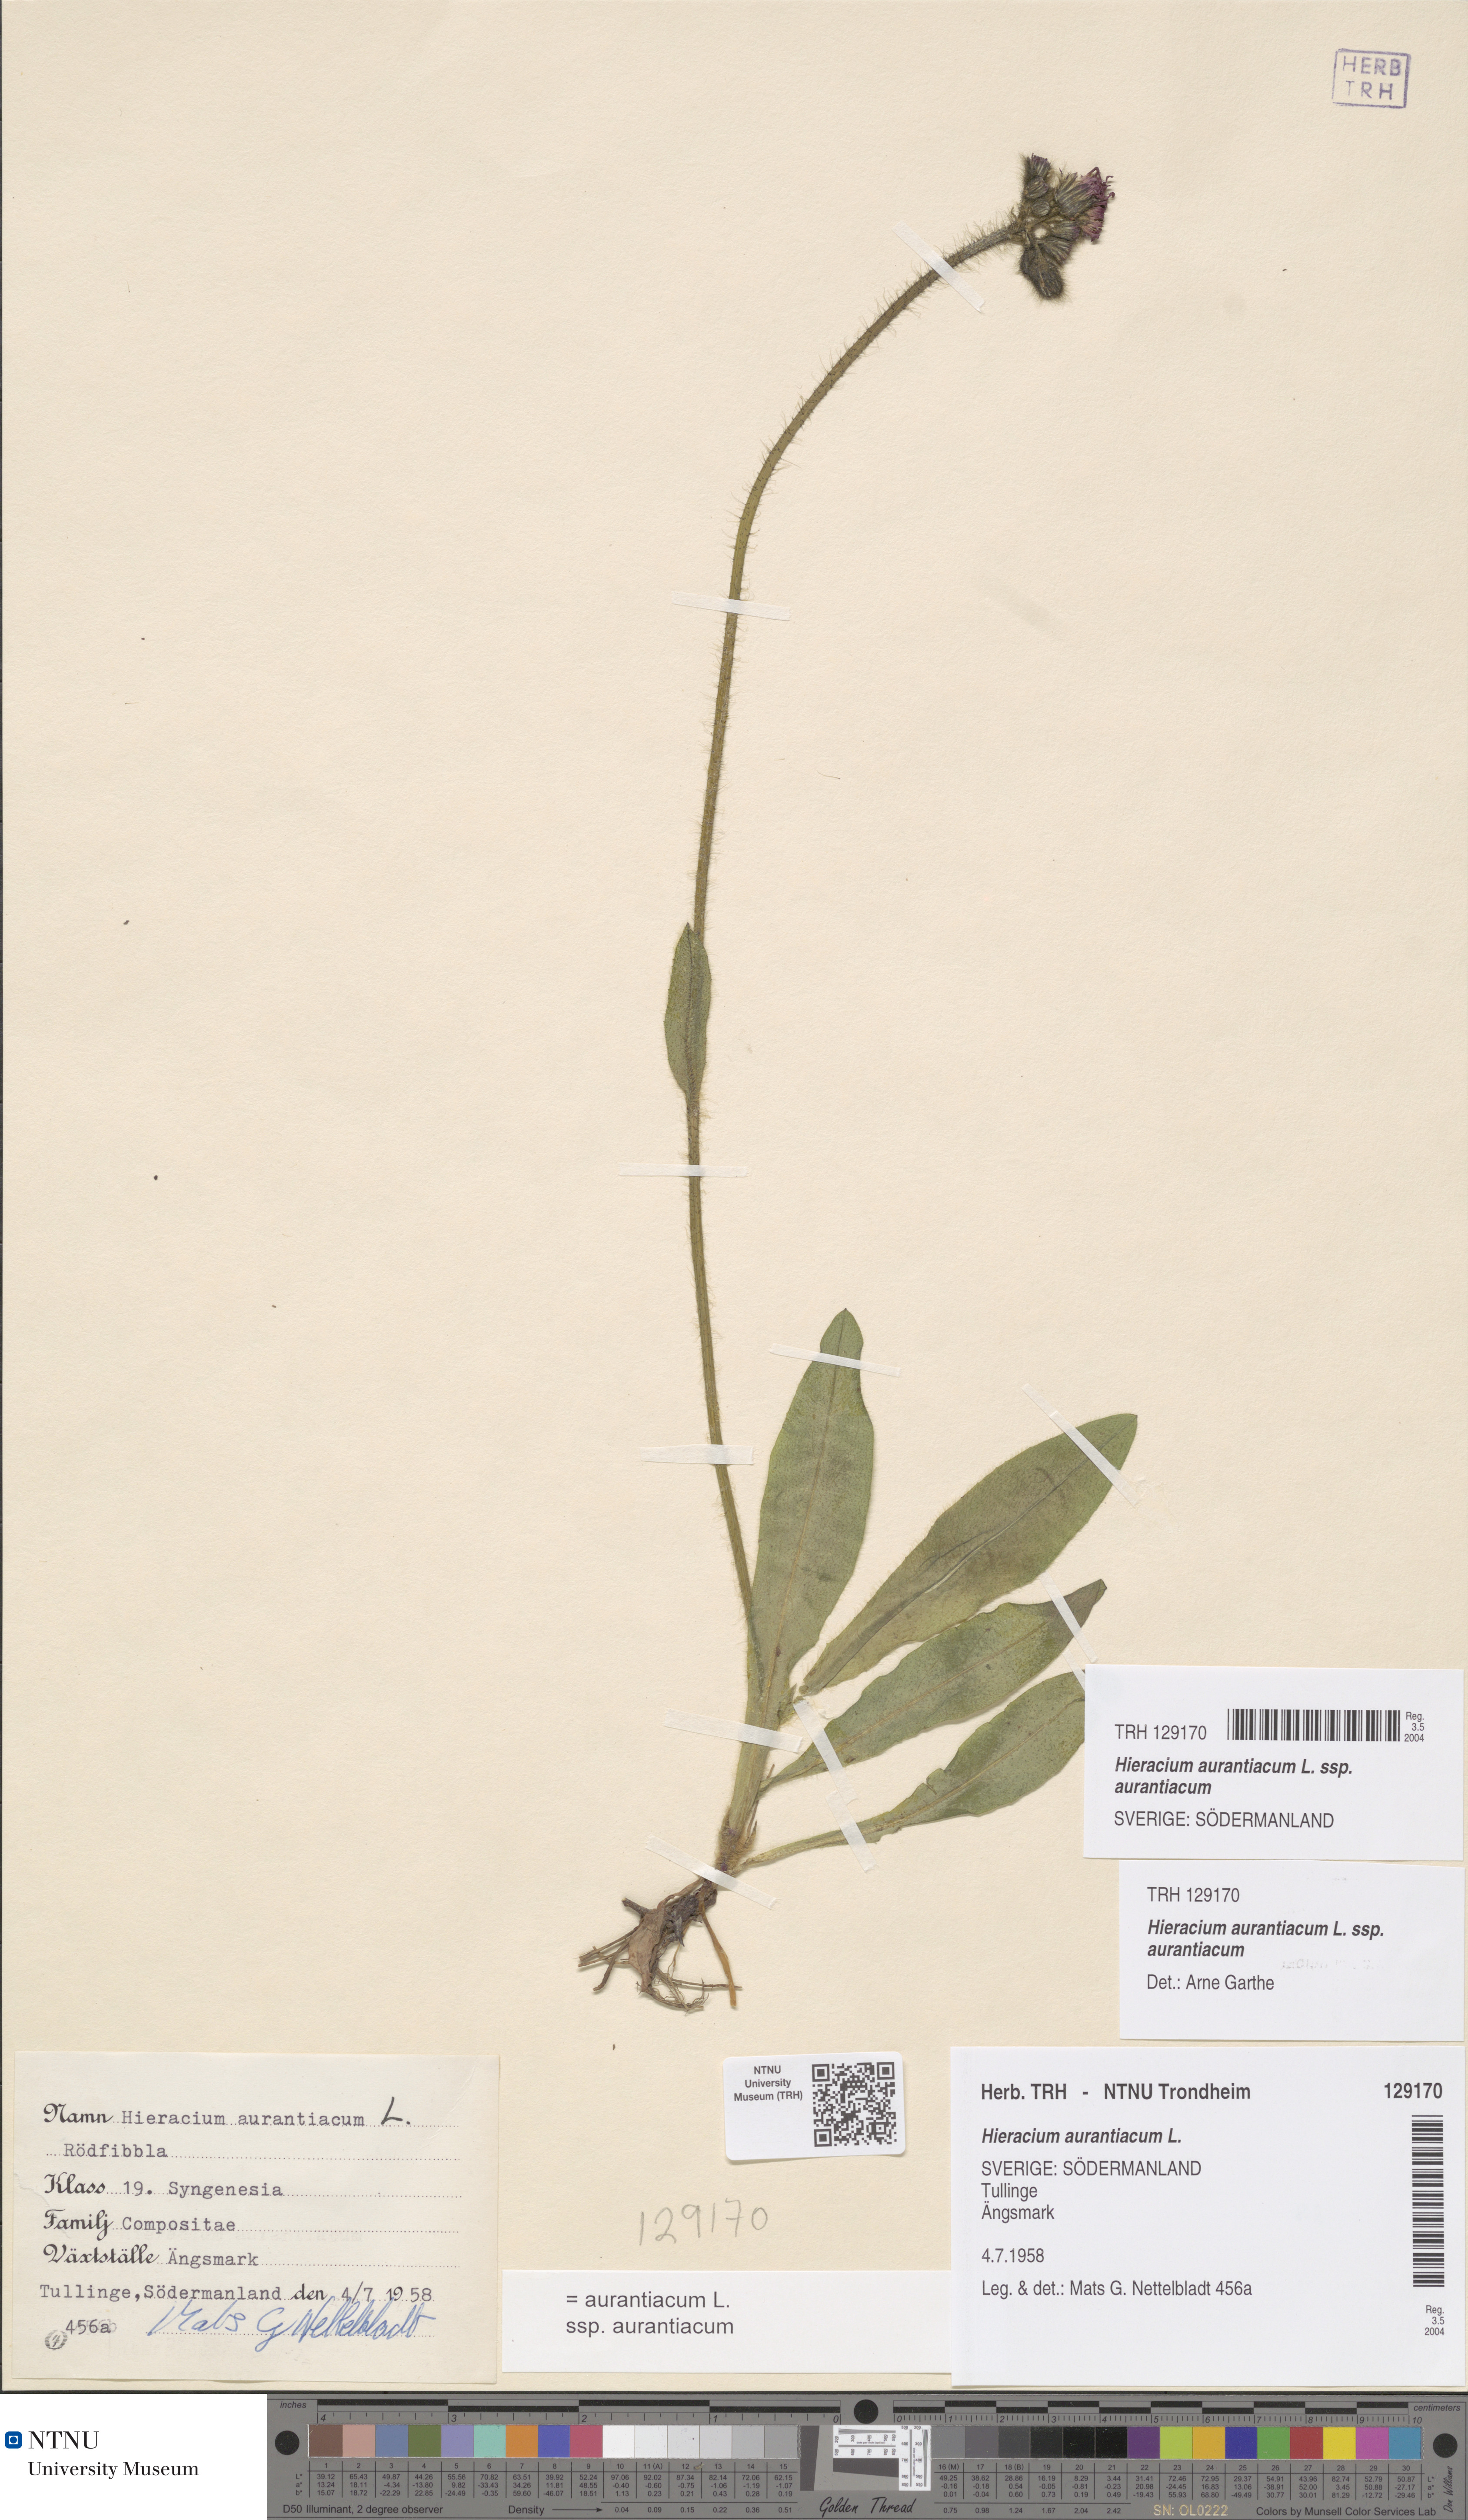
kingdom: Plantae
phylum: Tracheophyta
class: Magnoliopsida
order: Asterales
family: Asteraceae
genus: Pilosella
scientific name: Pilosella aurantiaca
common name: Fox-and-cubs
